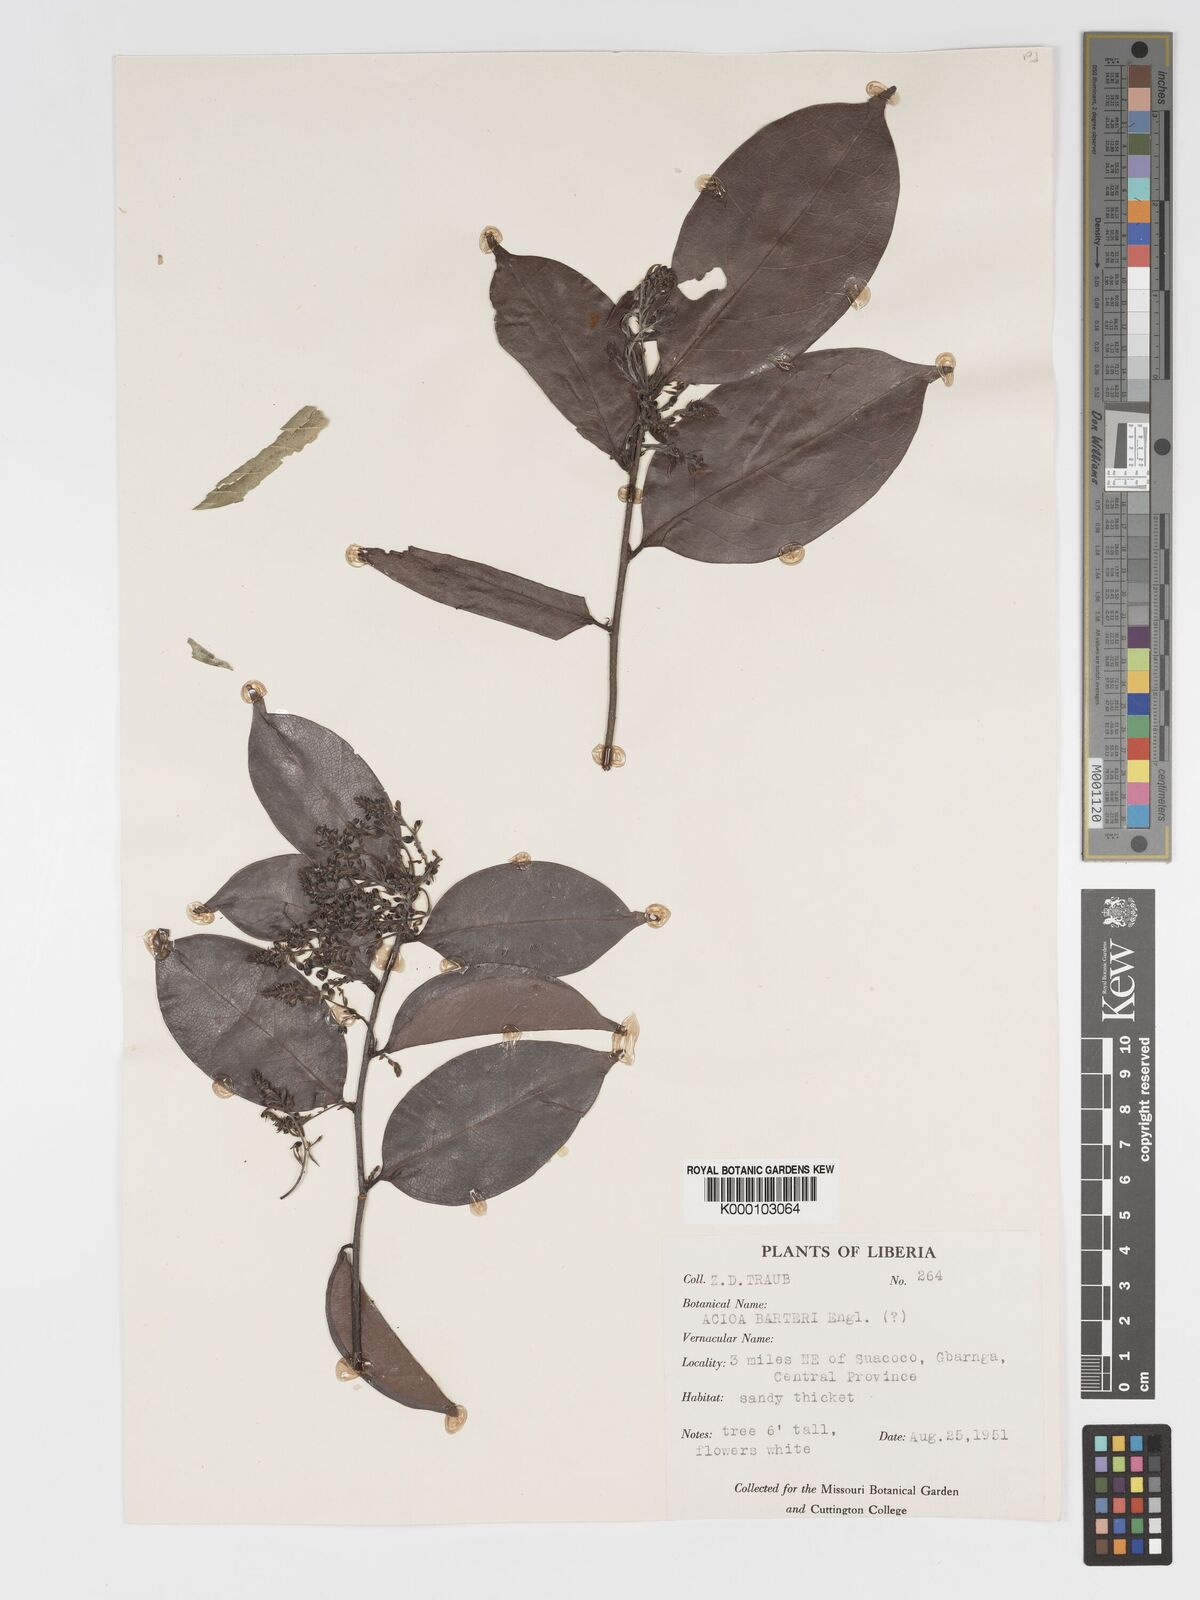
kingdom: Plantae
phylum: Tracheophyta
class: Magnoliopsida
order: Malpighiales
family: Chrysobalanaceae
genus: Dactyladenia
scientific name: Dactyladenia barteri
